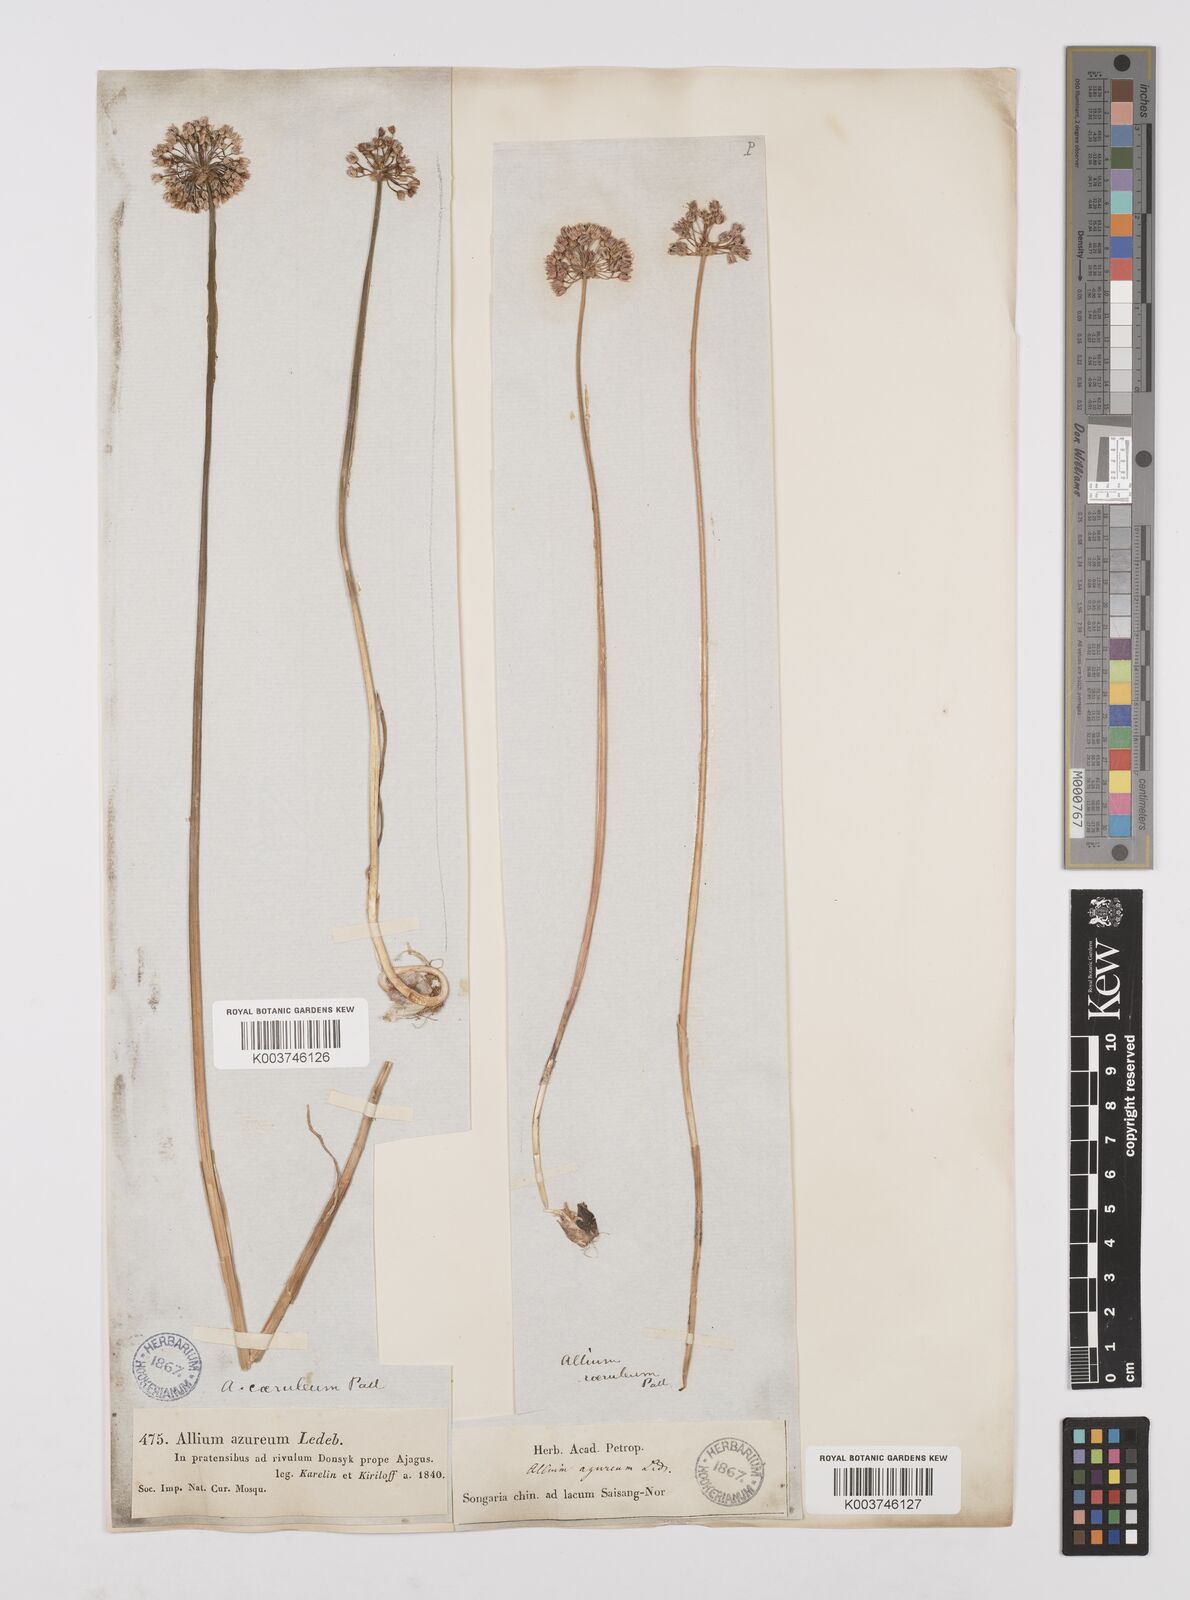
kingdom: Plantae
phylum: Tracheophyta
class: Liliopsida
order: Asparagales
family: Amaryllidaceae
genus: Allium
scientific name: Allium caeruleum
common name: Blue-of-the-heavens
